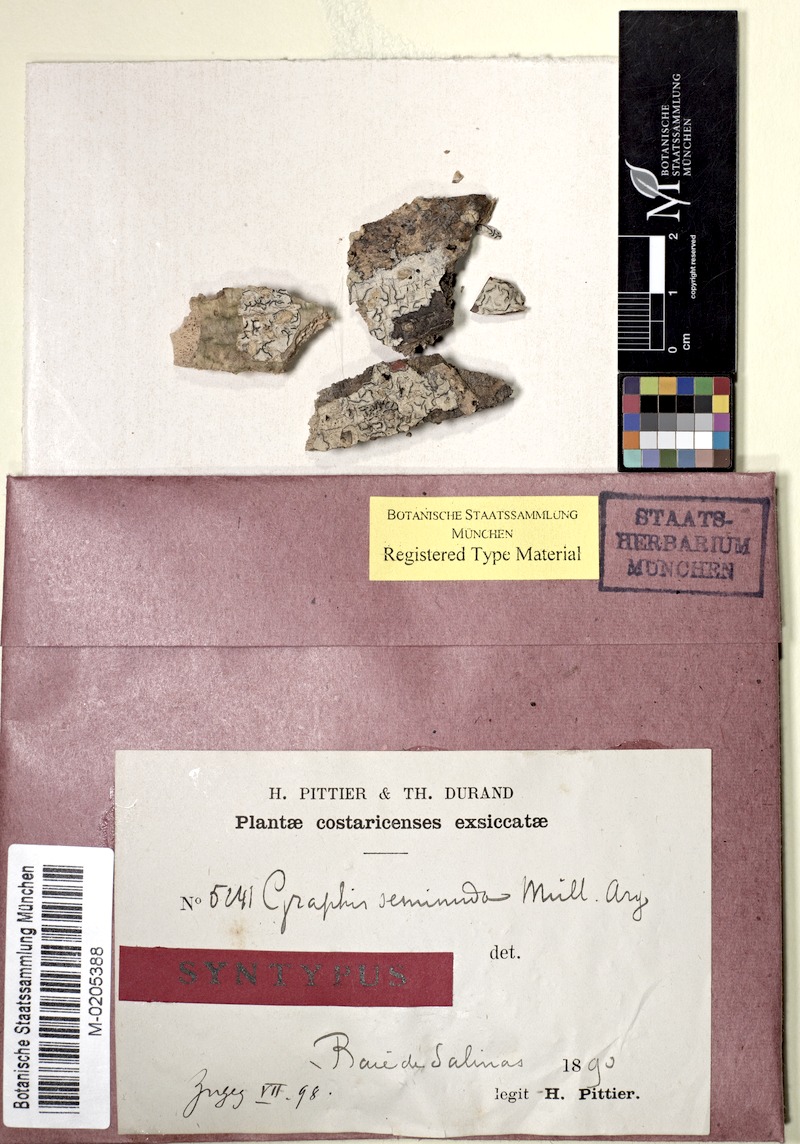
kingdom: Fungi
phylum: Ascomycota
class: Lecanoromycetes
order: Ostropales
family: Graphidaceae
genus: Allographa
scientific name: Allographa seminuda
